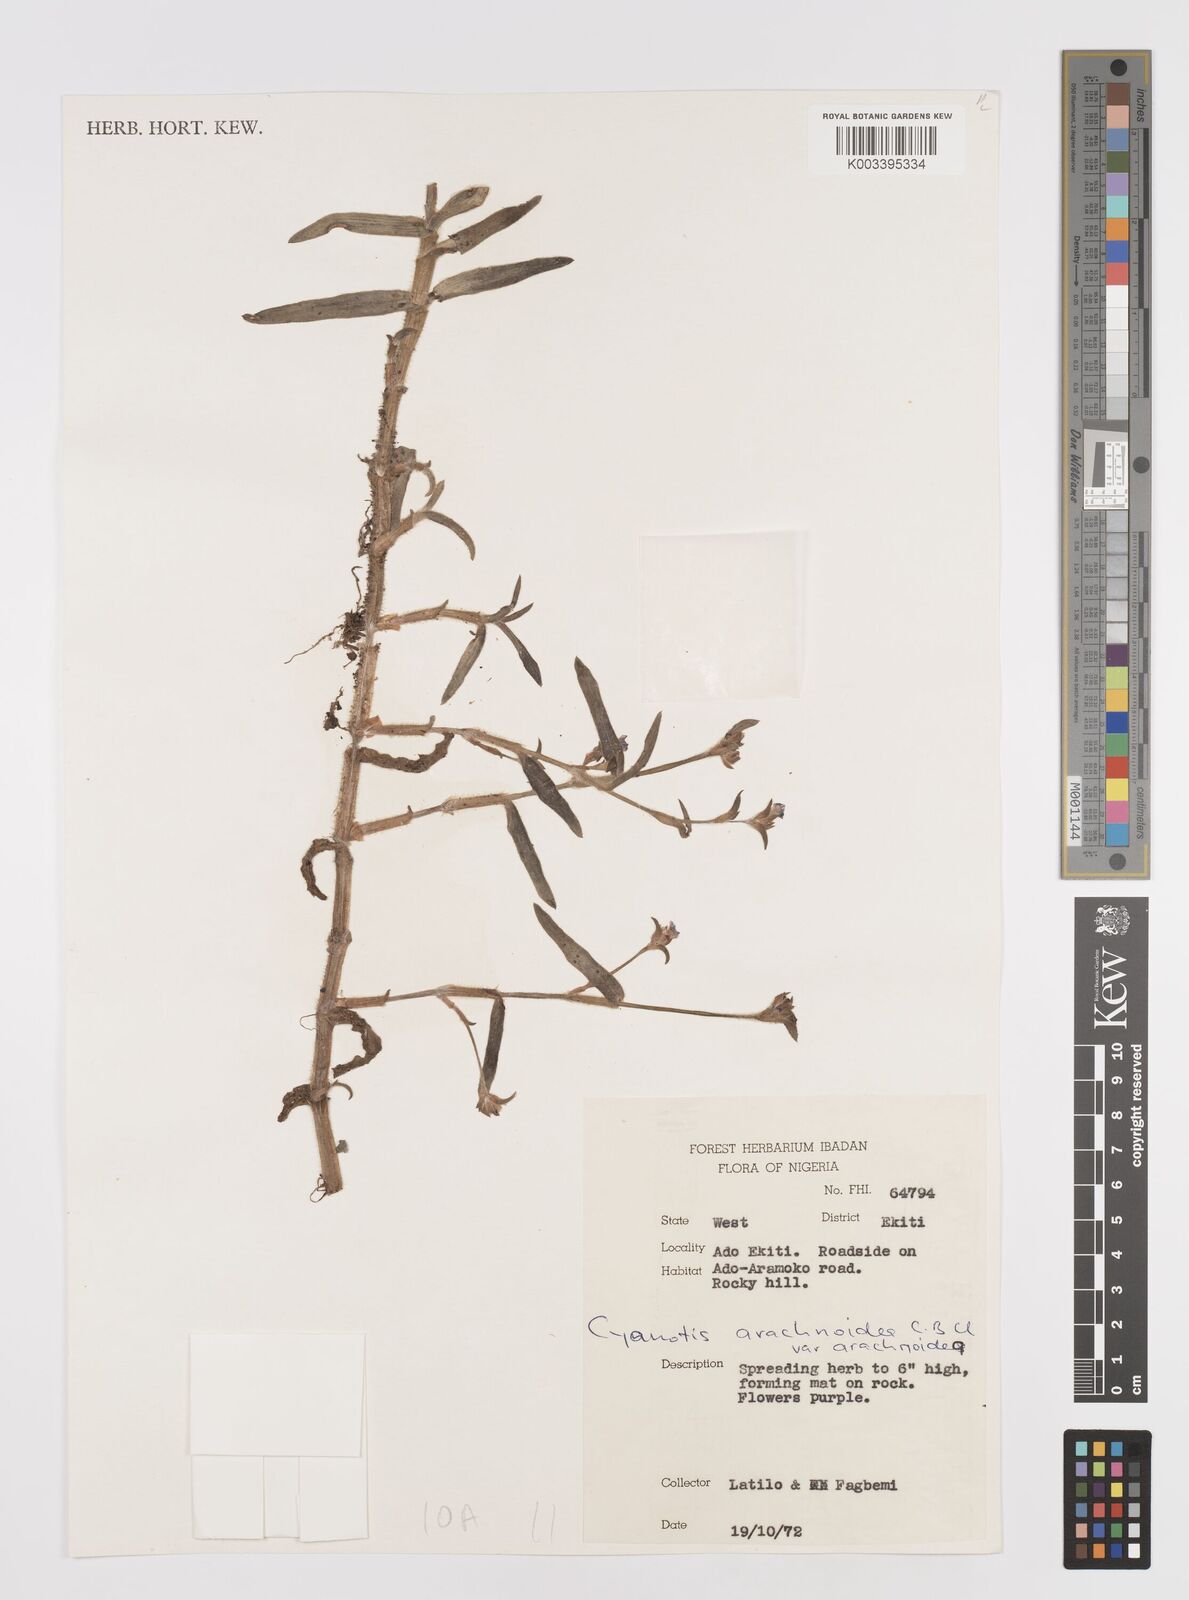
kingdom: Plantae
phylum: Tracheophyta
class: Liliopsida
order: Commelinales
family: Commelinaceae
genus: Cyanotis
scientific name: Cyanotis arachnoidea
